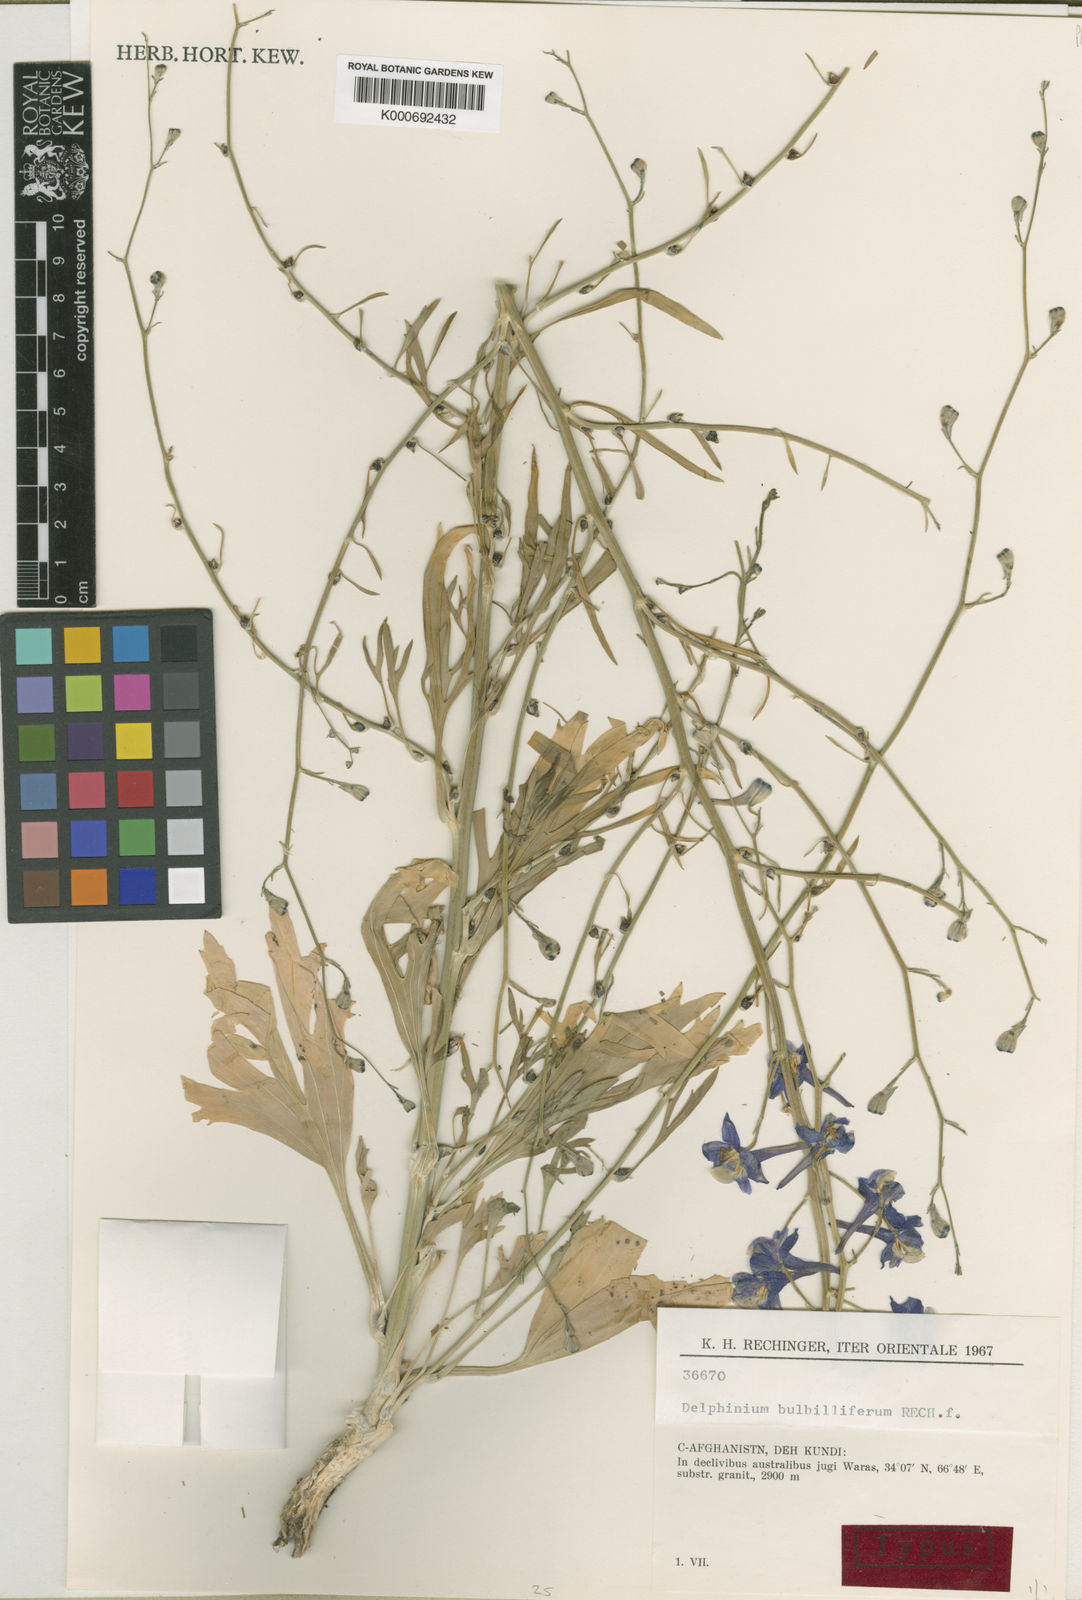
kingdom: Plantae
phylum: Tracheophyta
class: Magnoliopsida
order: Ranunculales
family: Ranunculaceae
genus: Delphinium
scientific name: Delphinium bulbilliferum
